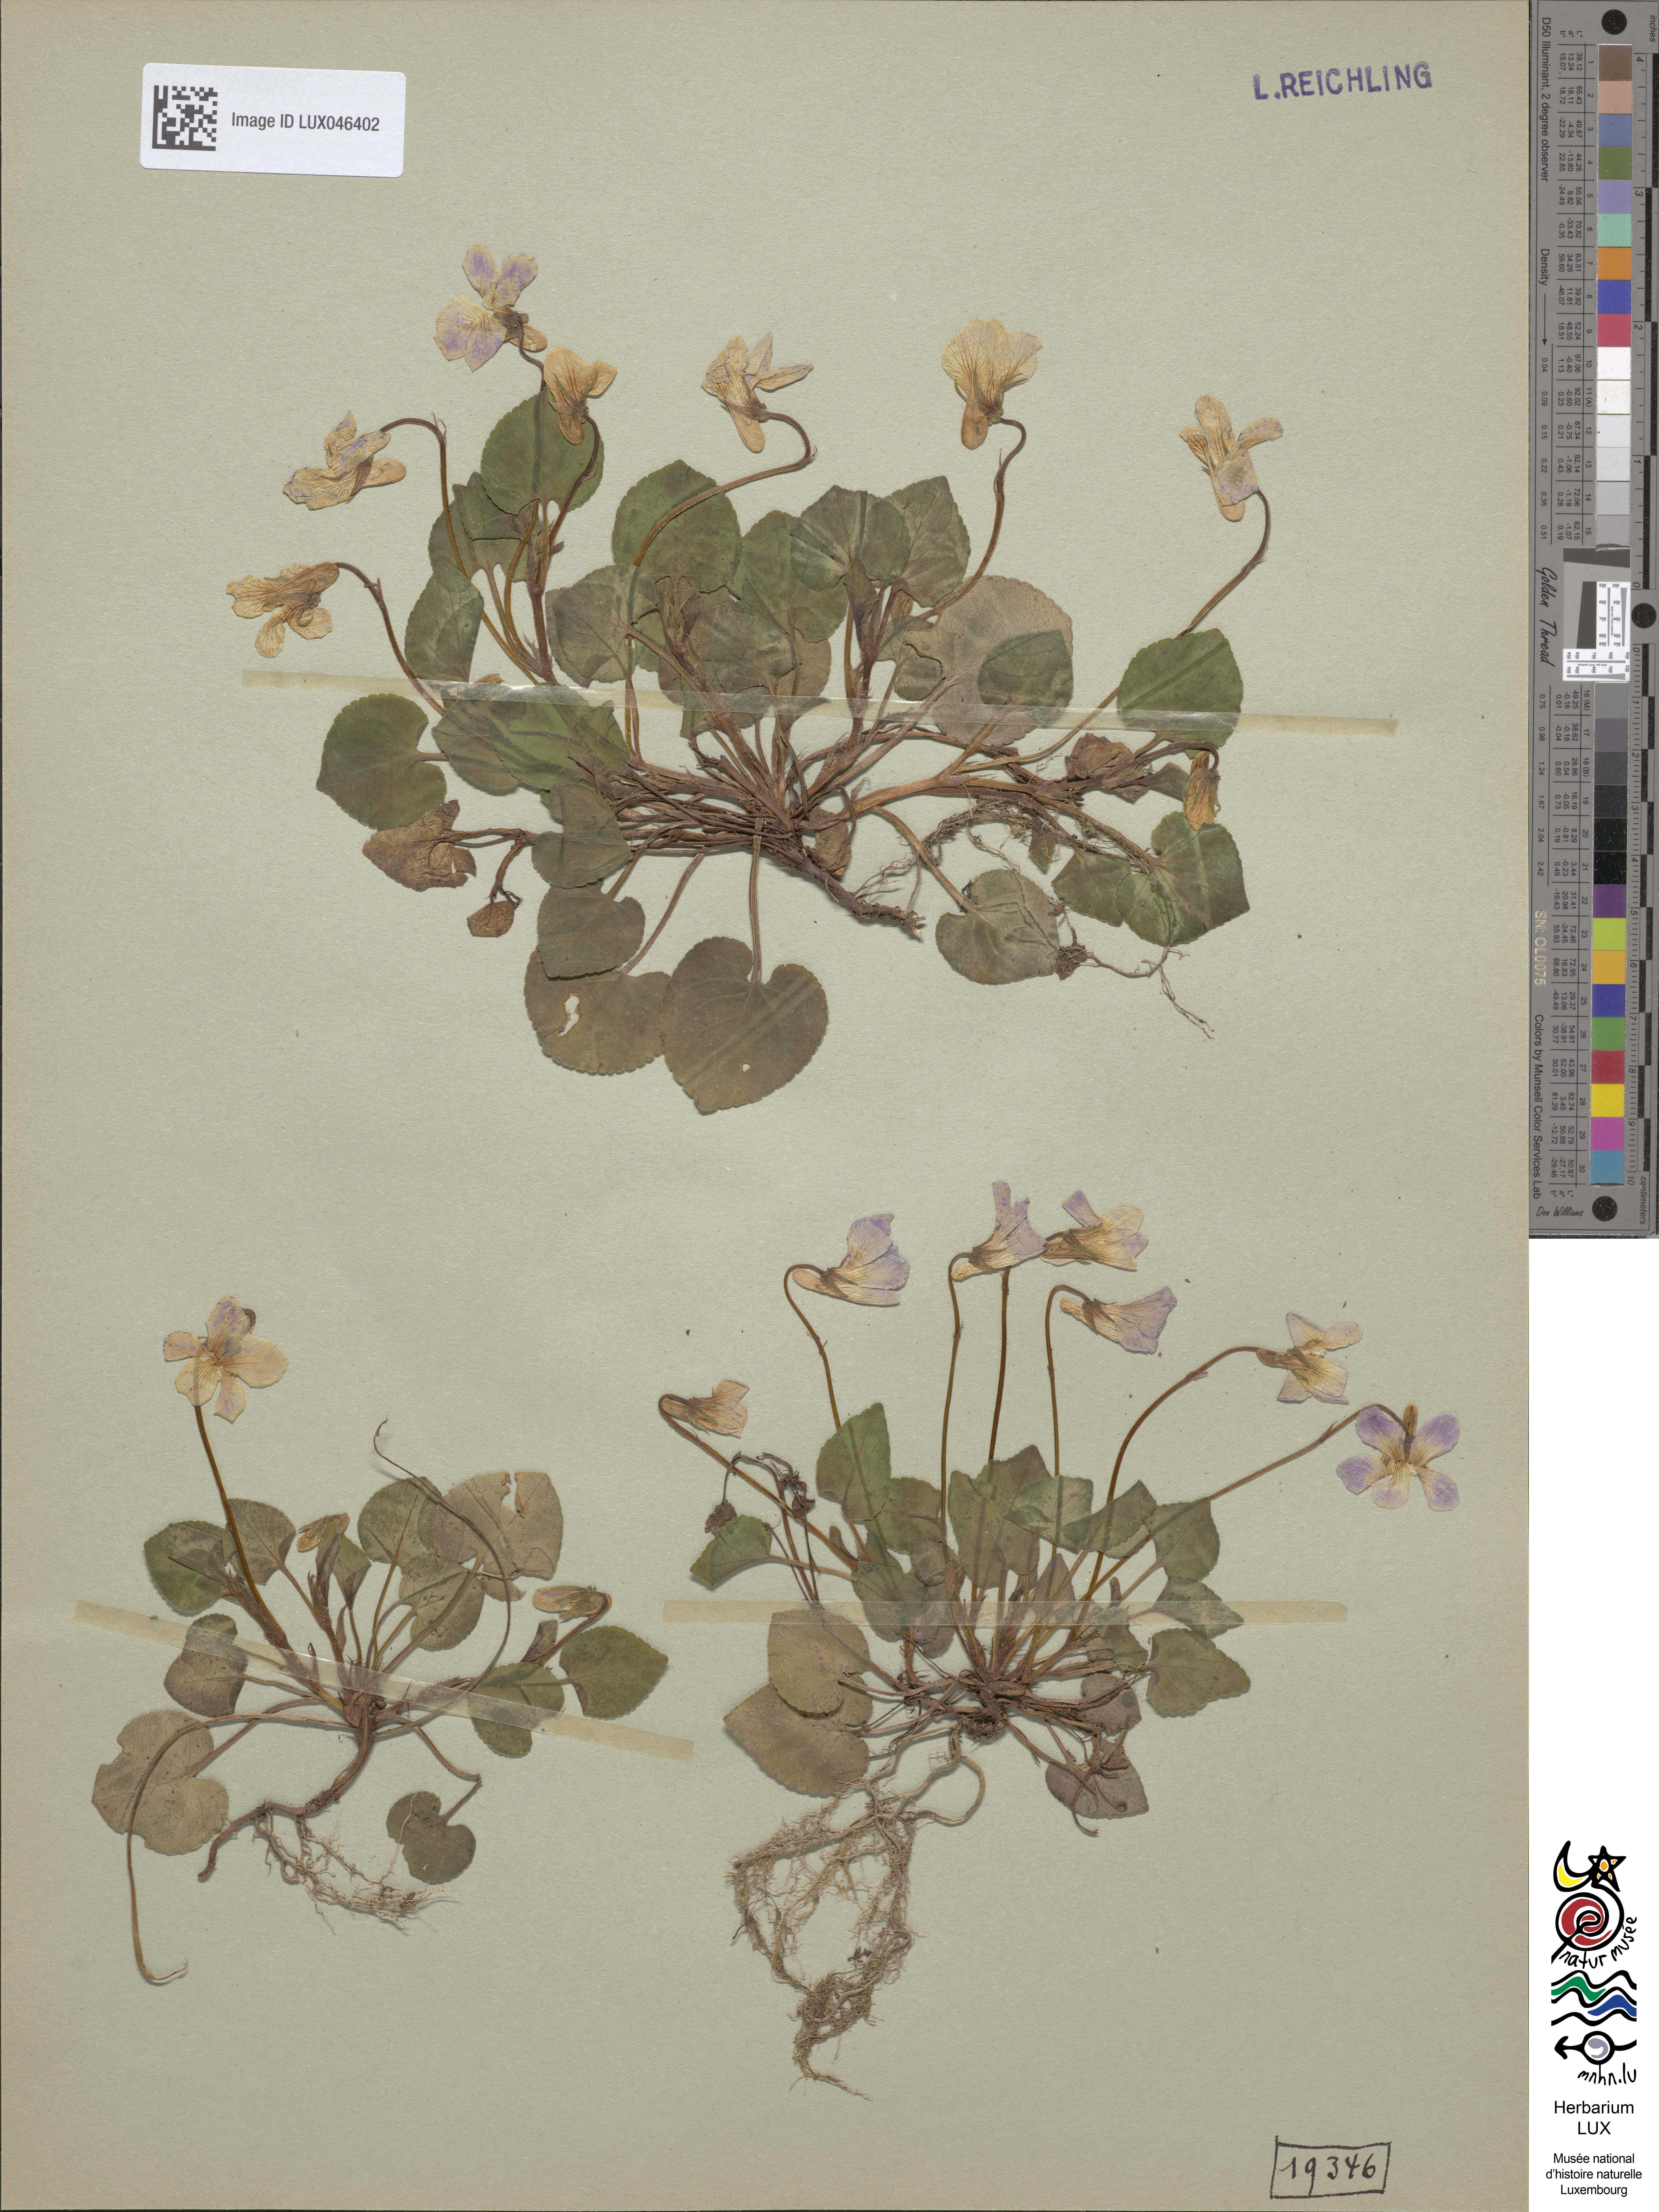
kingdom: Plantae
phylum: Tracheophyta
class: Magnoliopsida
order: Malpighiales
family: Violaceae
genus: Viola
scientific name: Viola riviniana
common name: Common dog-violet
